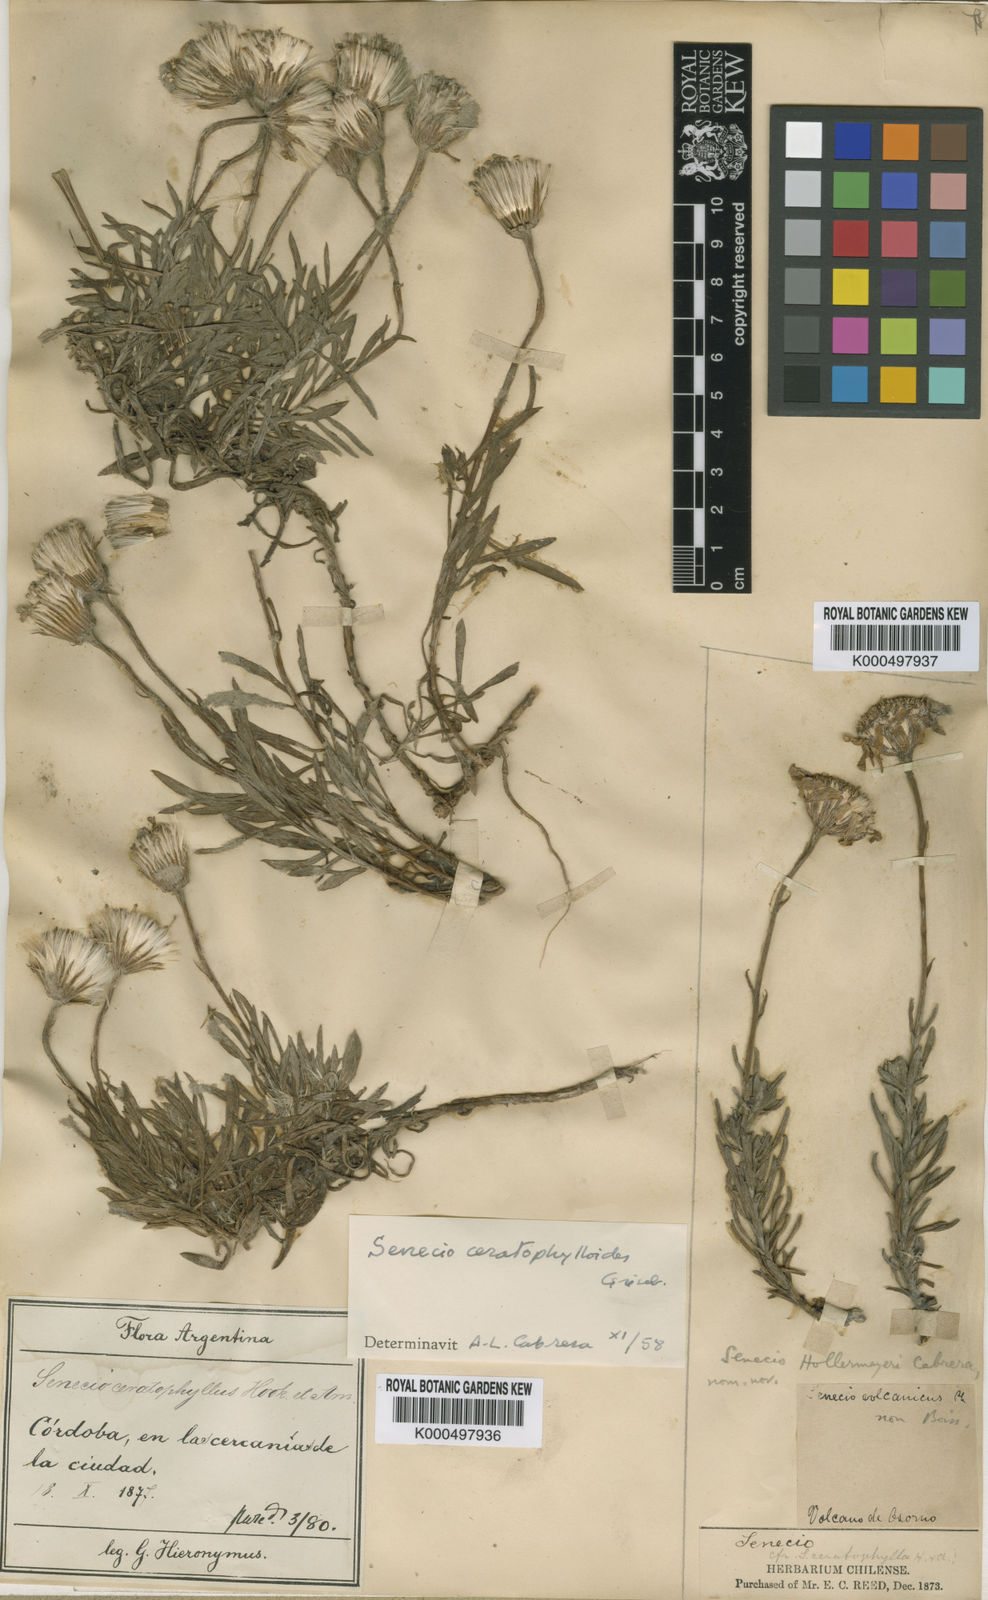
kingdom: Plantae
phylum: Tracheophyta
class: Magnoliopsida
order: Asterales
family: Asteraceae
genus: Senecio
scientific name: Senecio chionophilus
